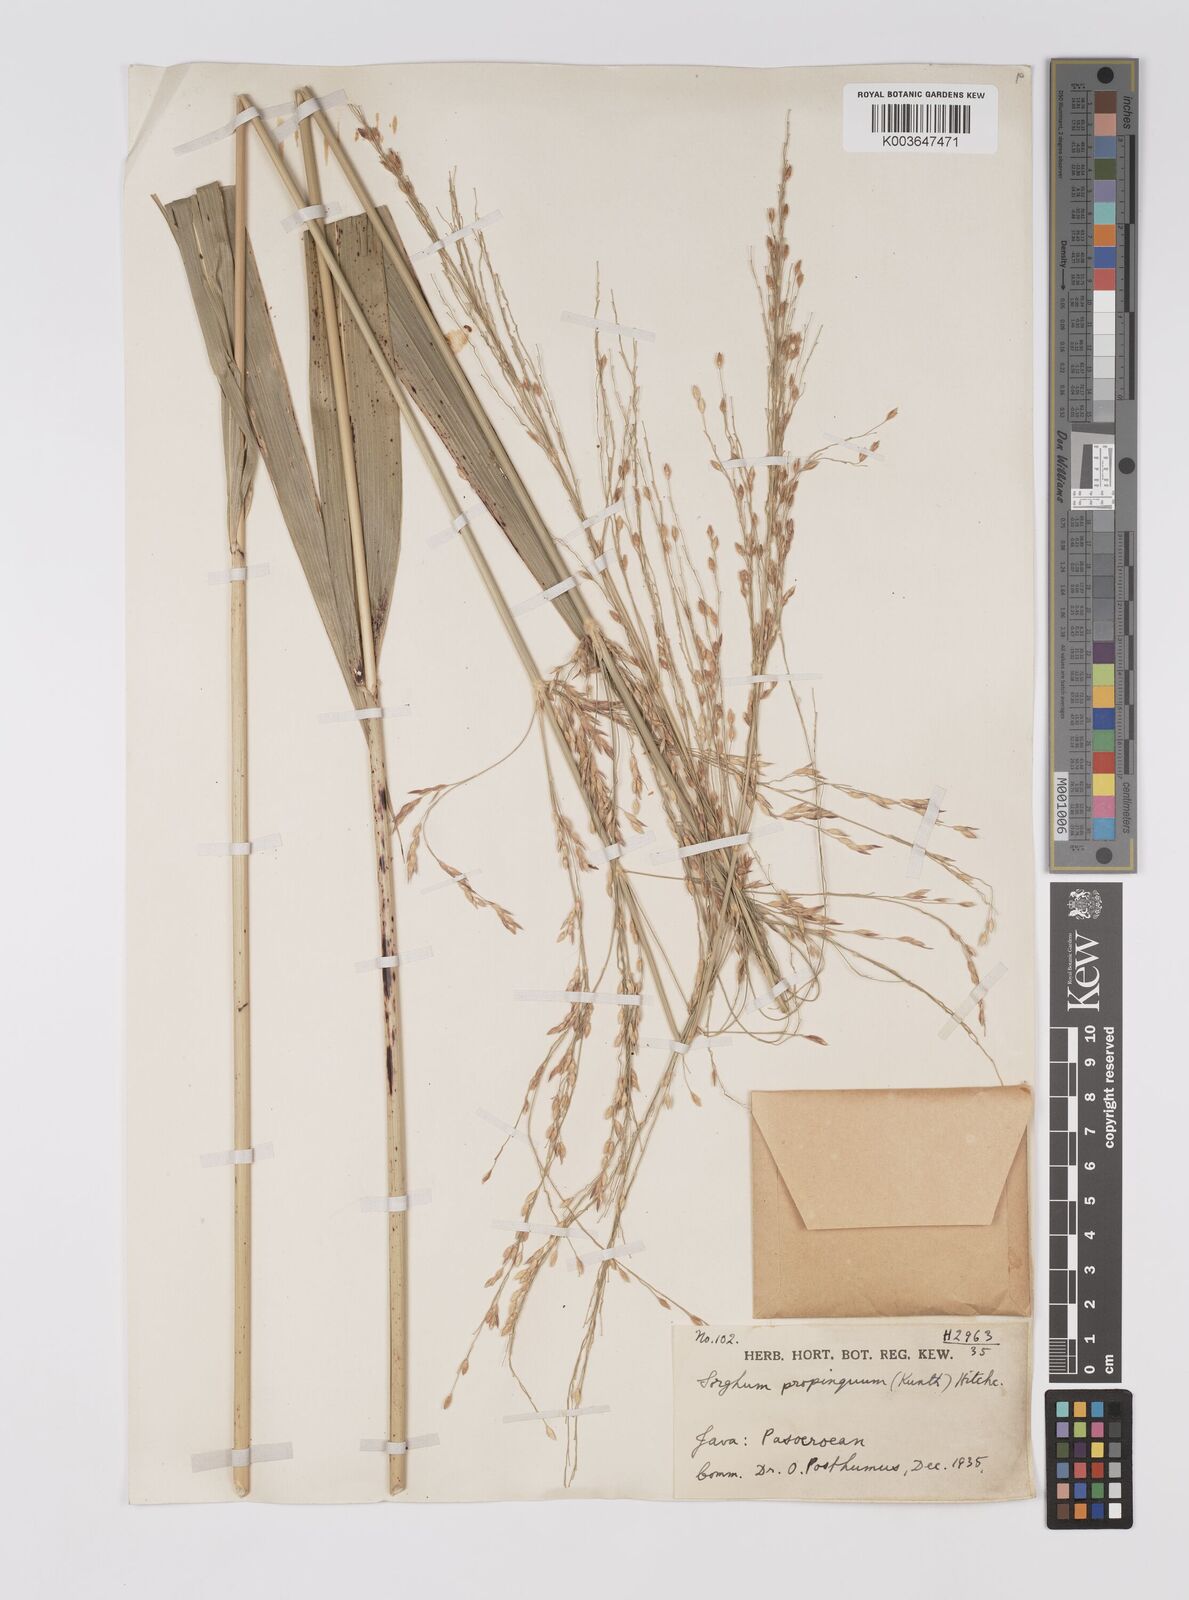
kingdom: Plantae
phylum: Tracheophyta
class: Liliopsida
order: Poales
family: Poaceae
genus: Sorghum
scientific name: Sorghum propinquum
